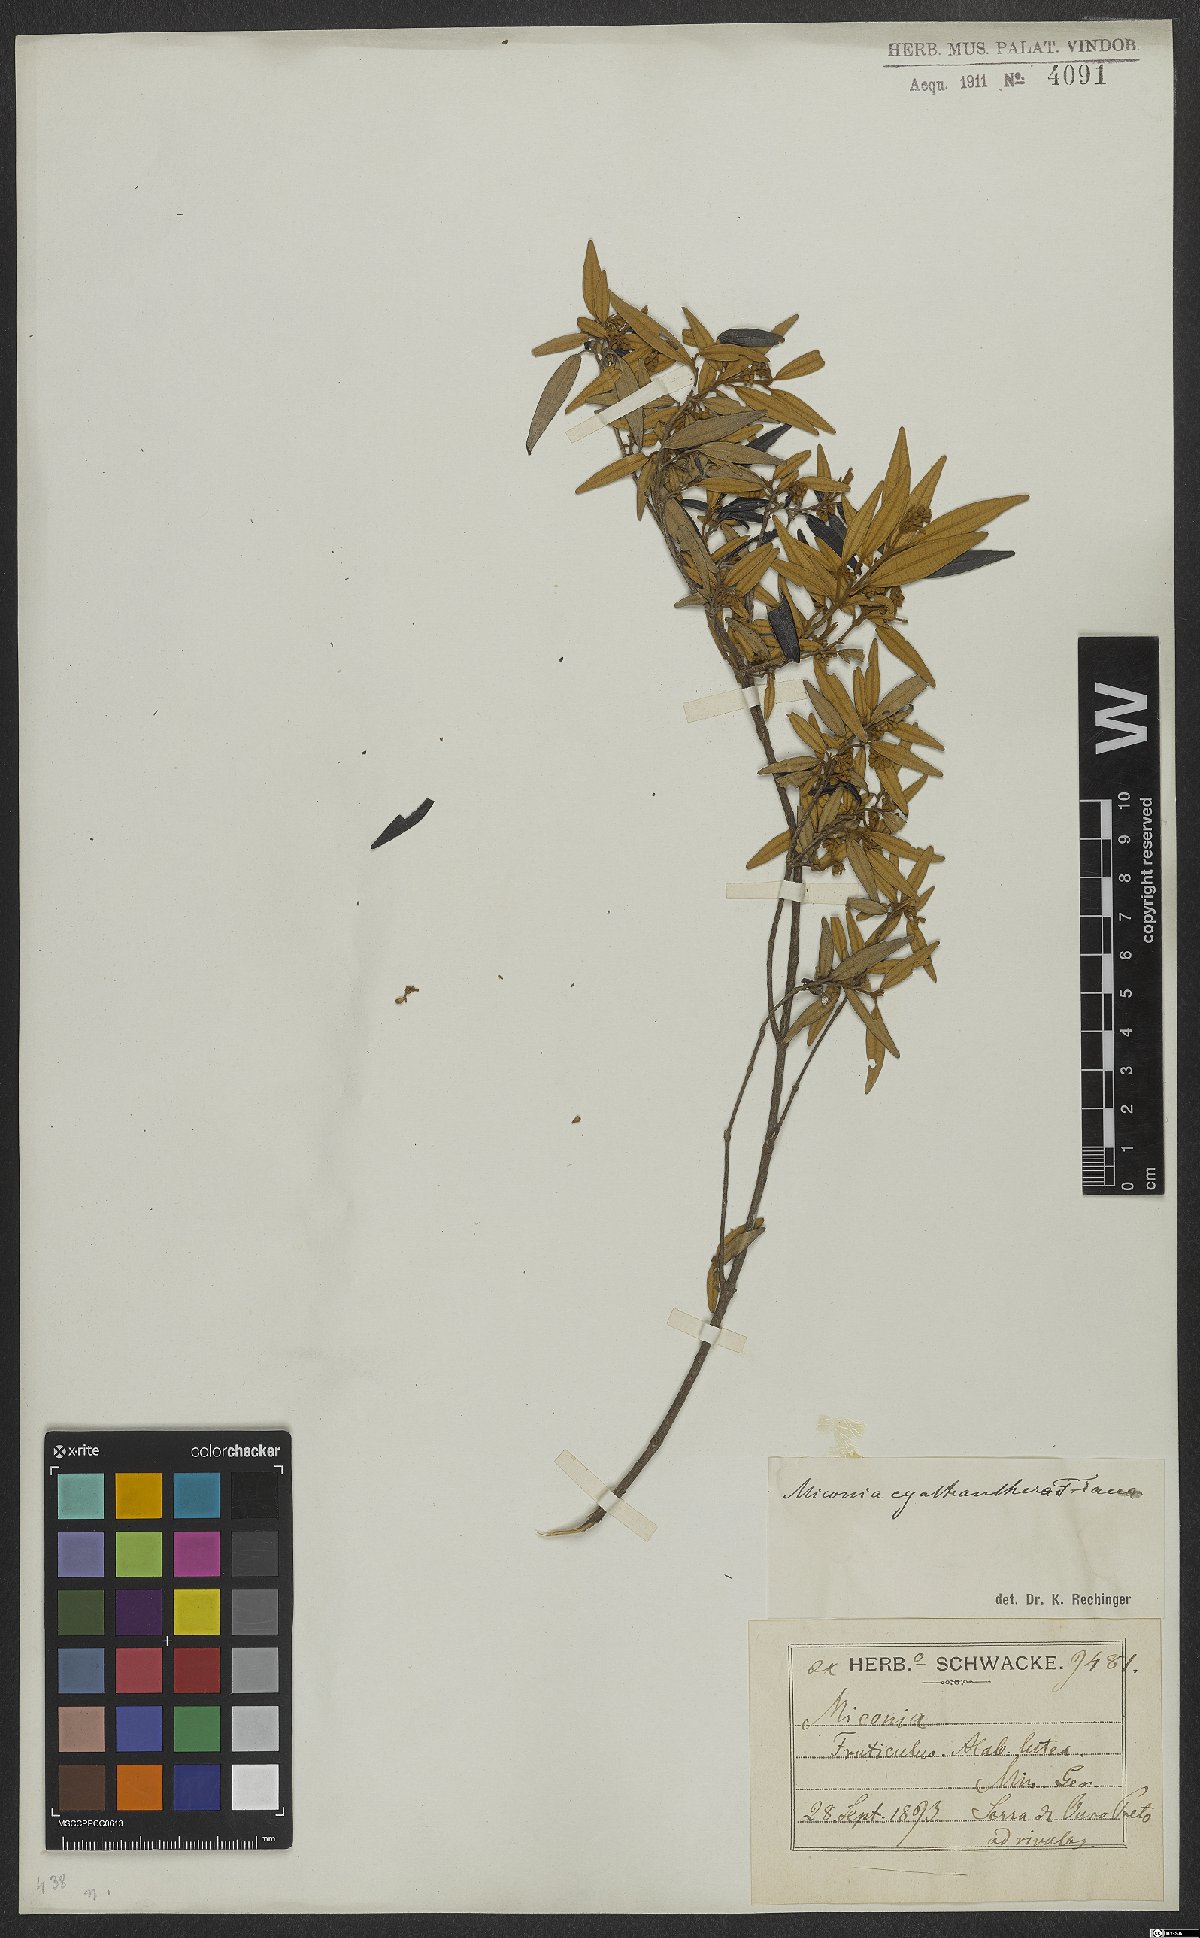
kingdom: Plantae
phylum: Tracheophyta
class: Magnoliopsida
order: Myrtales
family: Melastomataceae
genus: Miconia
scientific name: Miconia cyathanthera
